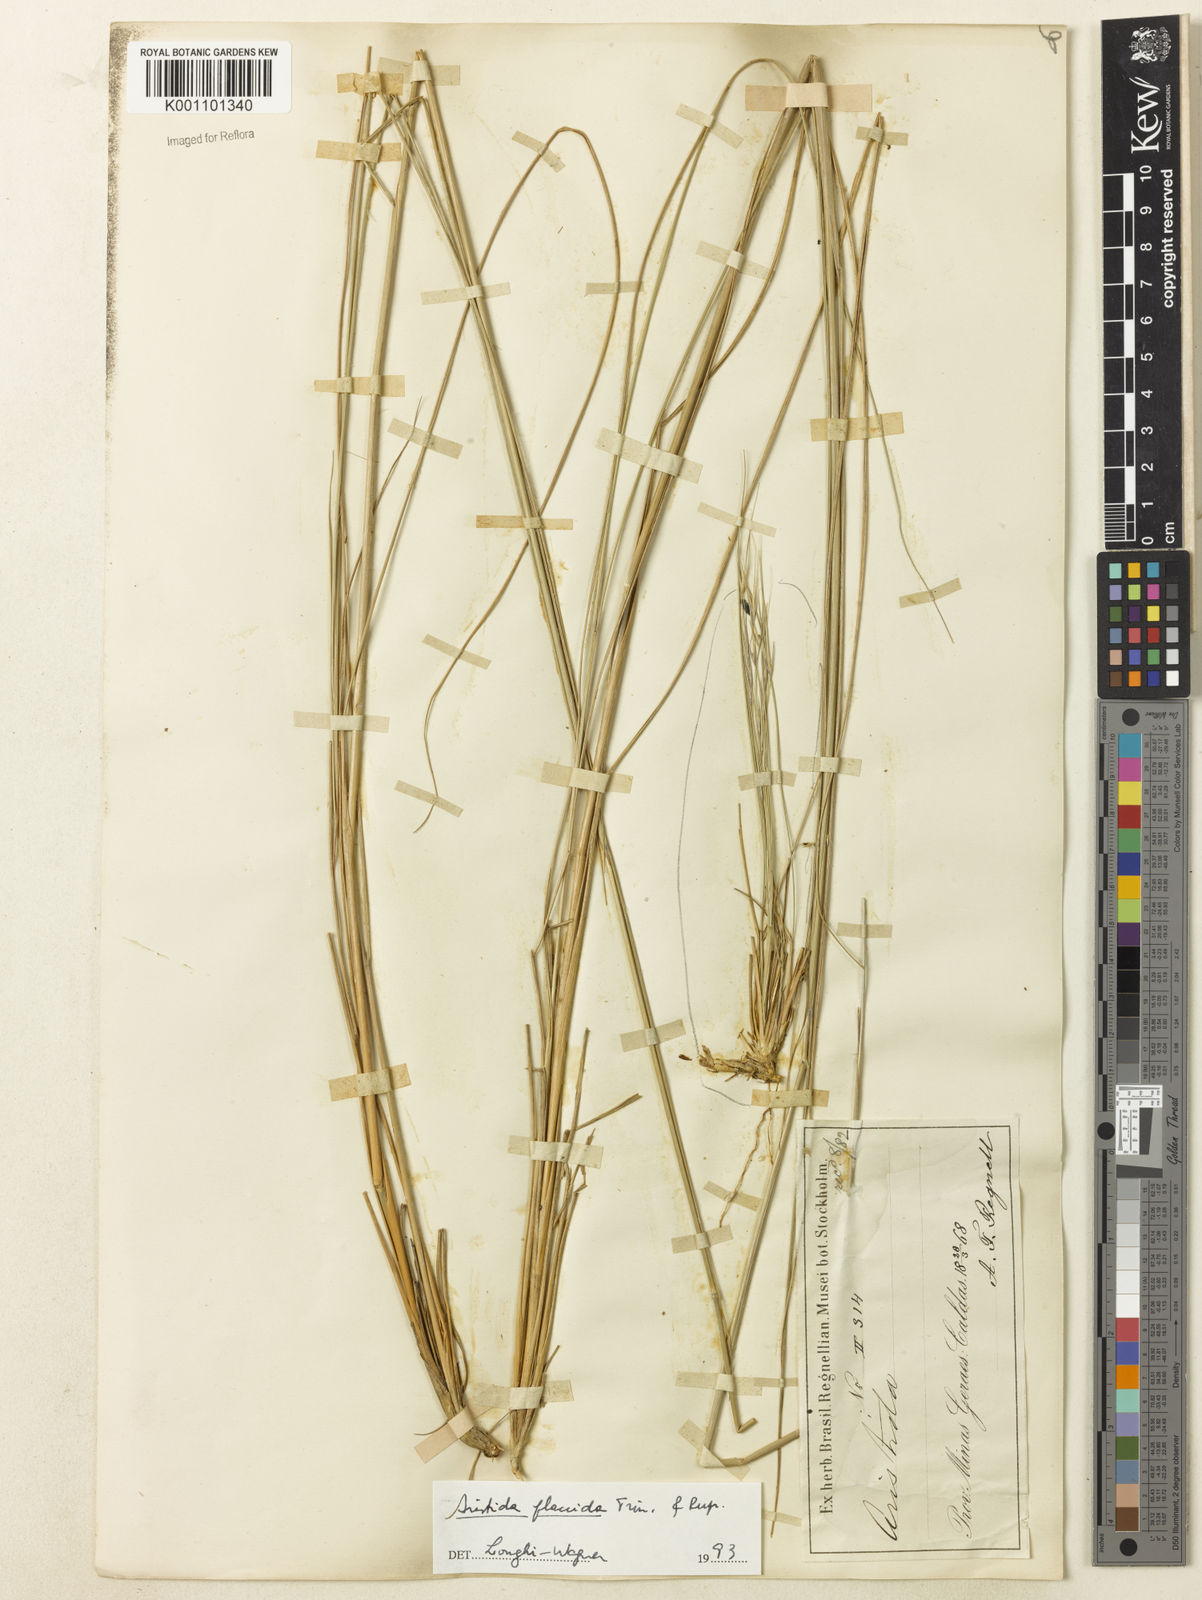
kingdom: Plantae
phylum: Tracheophyta
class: Liliopsida
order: Poales
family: Poaceae
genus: Aristida
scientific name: Aristida flaccida
